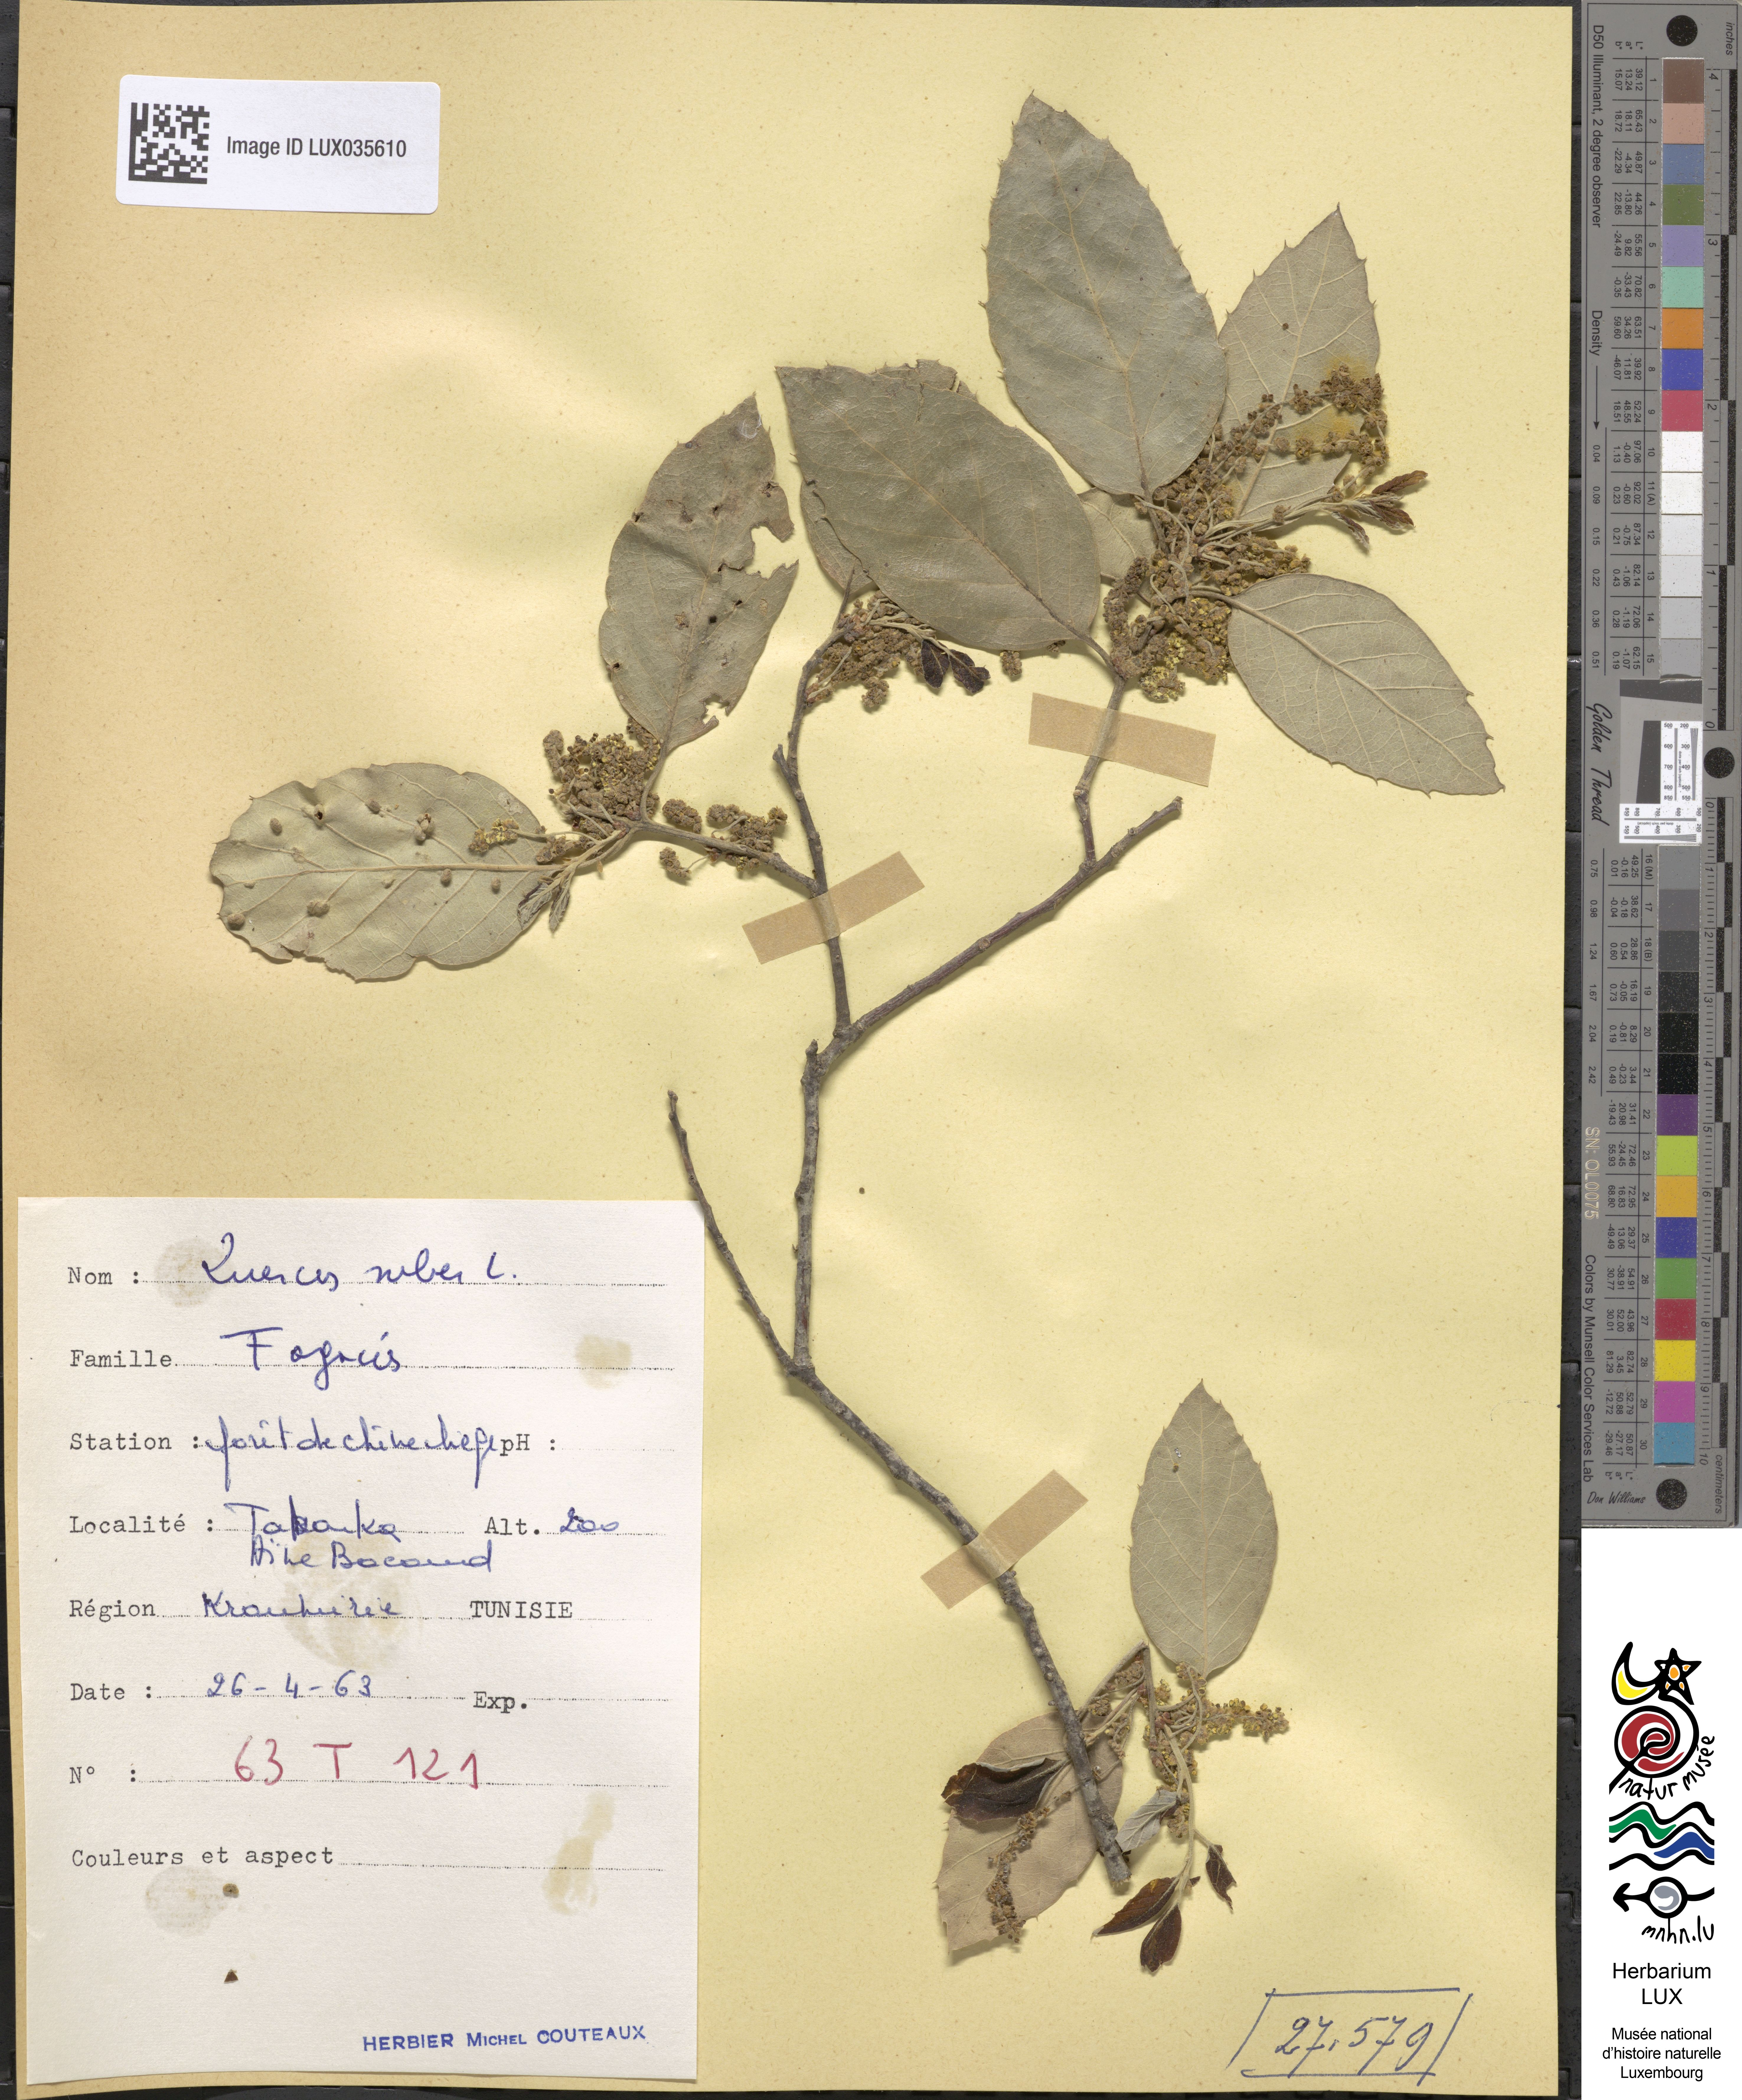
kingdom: Plantae
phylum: Tracheophyta
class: Liliopsida
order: Asparagales
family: Asphodelaceae
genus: Asphodelus
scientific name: Asphodelus ramosus
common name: Silverrod
